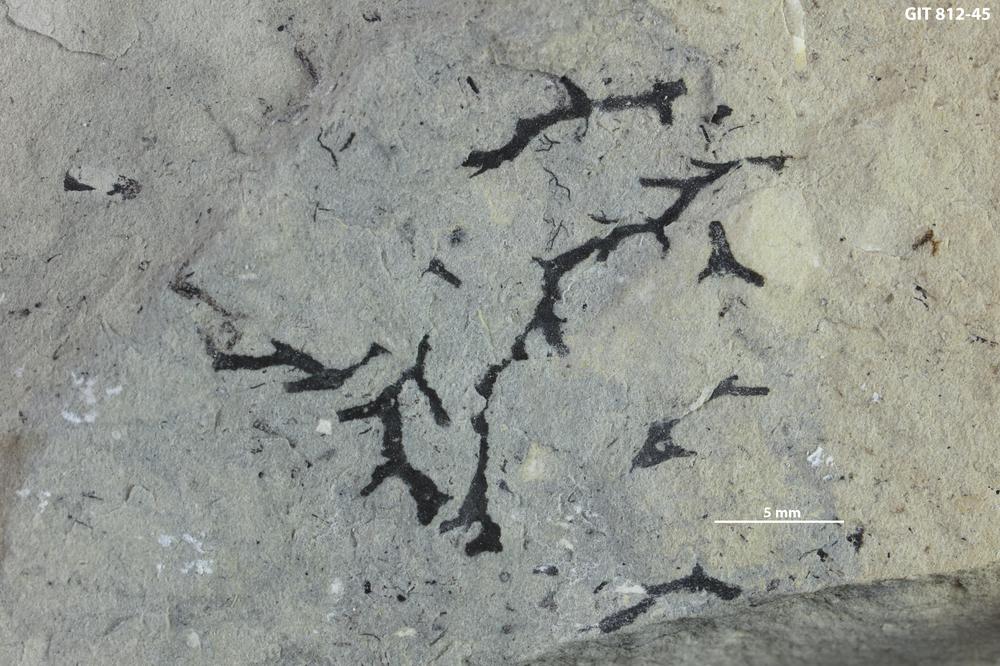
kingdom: Animalia
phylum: Cnidaria
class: Hydrozoa
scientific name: Hydrozoa
